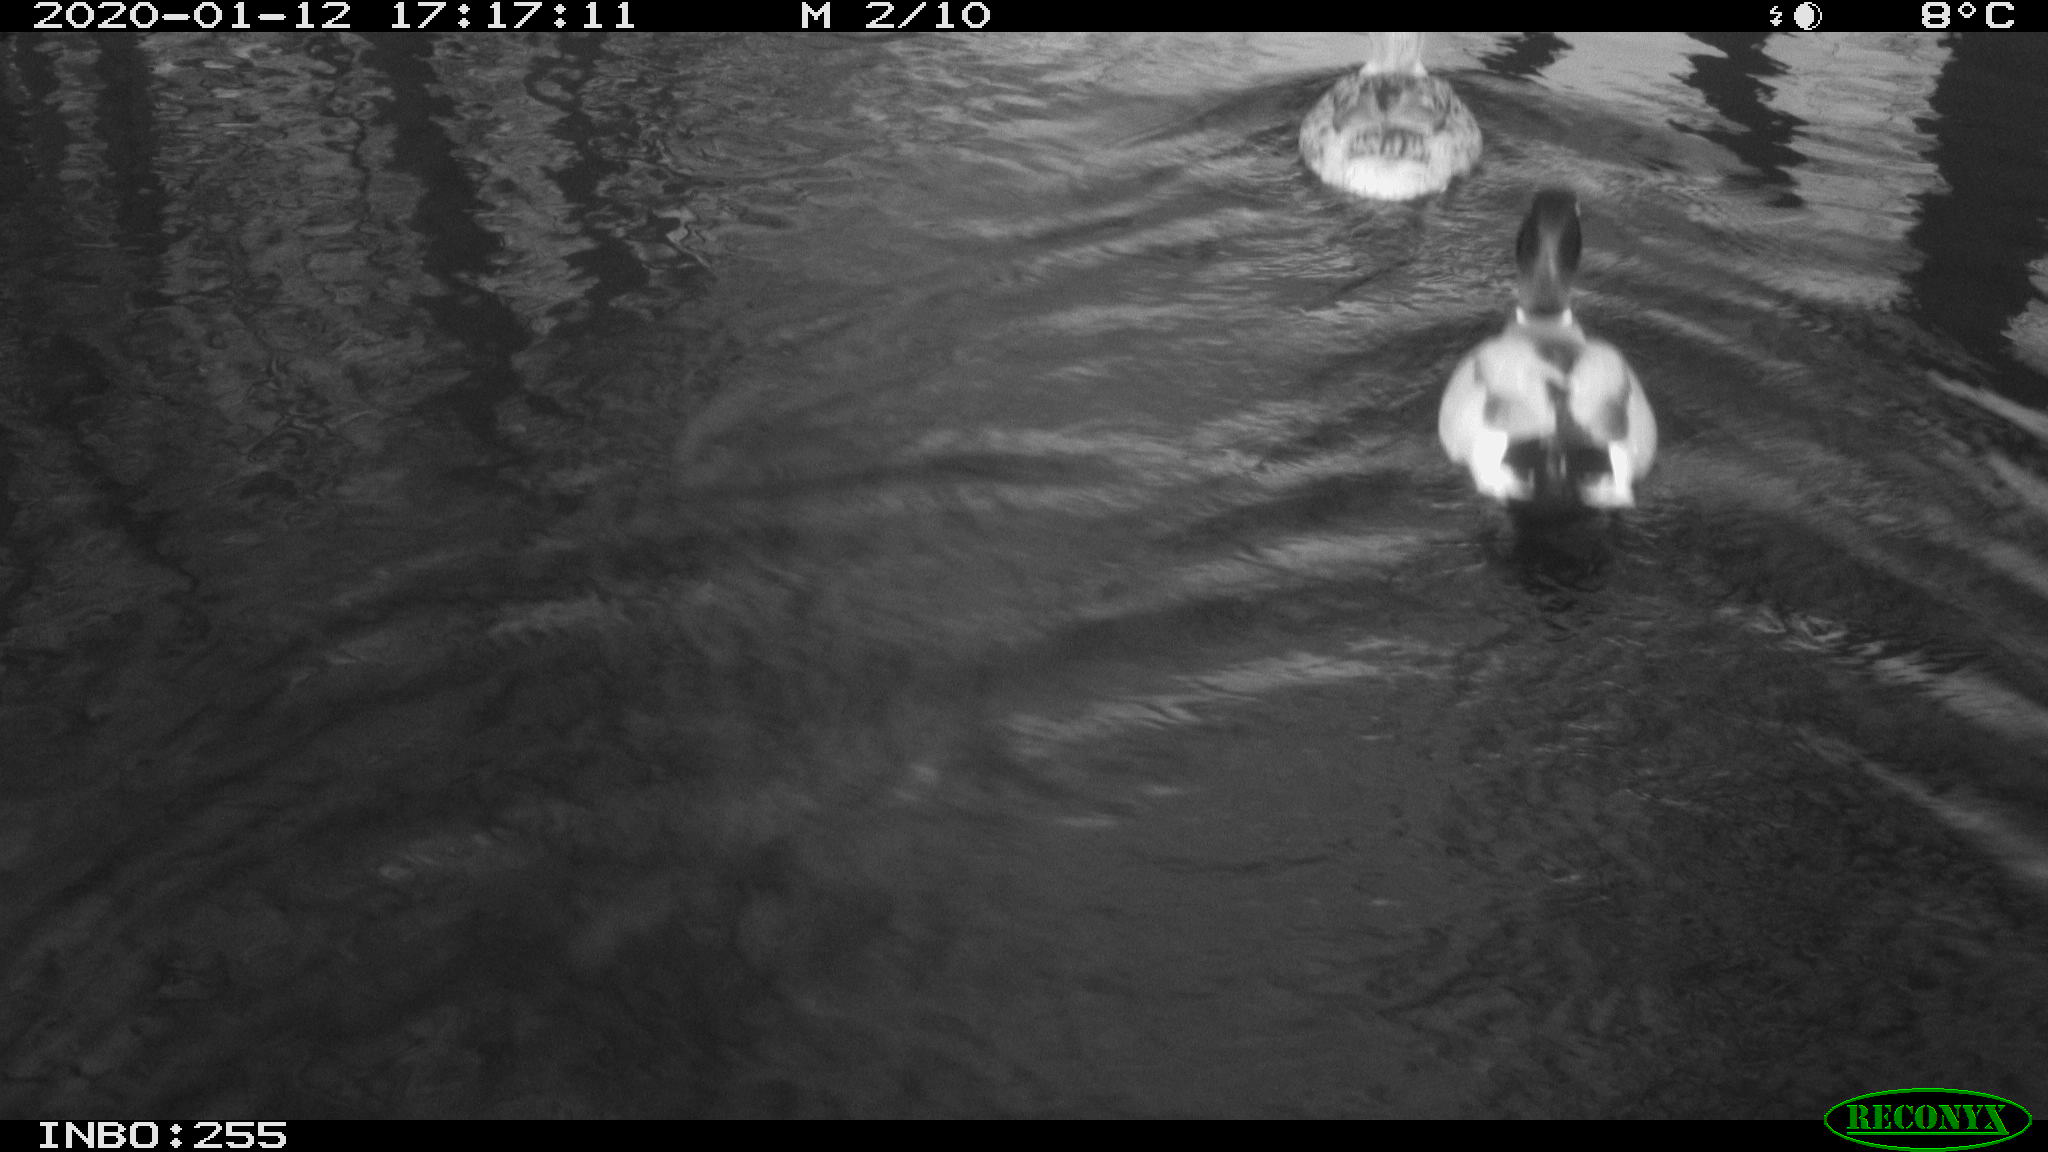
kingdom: Animalia
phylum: Chordata
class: Aves
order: Anseriformes
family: Anatidae
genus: Anas
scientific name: Anas platyrhynchos
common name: Mallard
